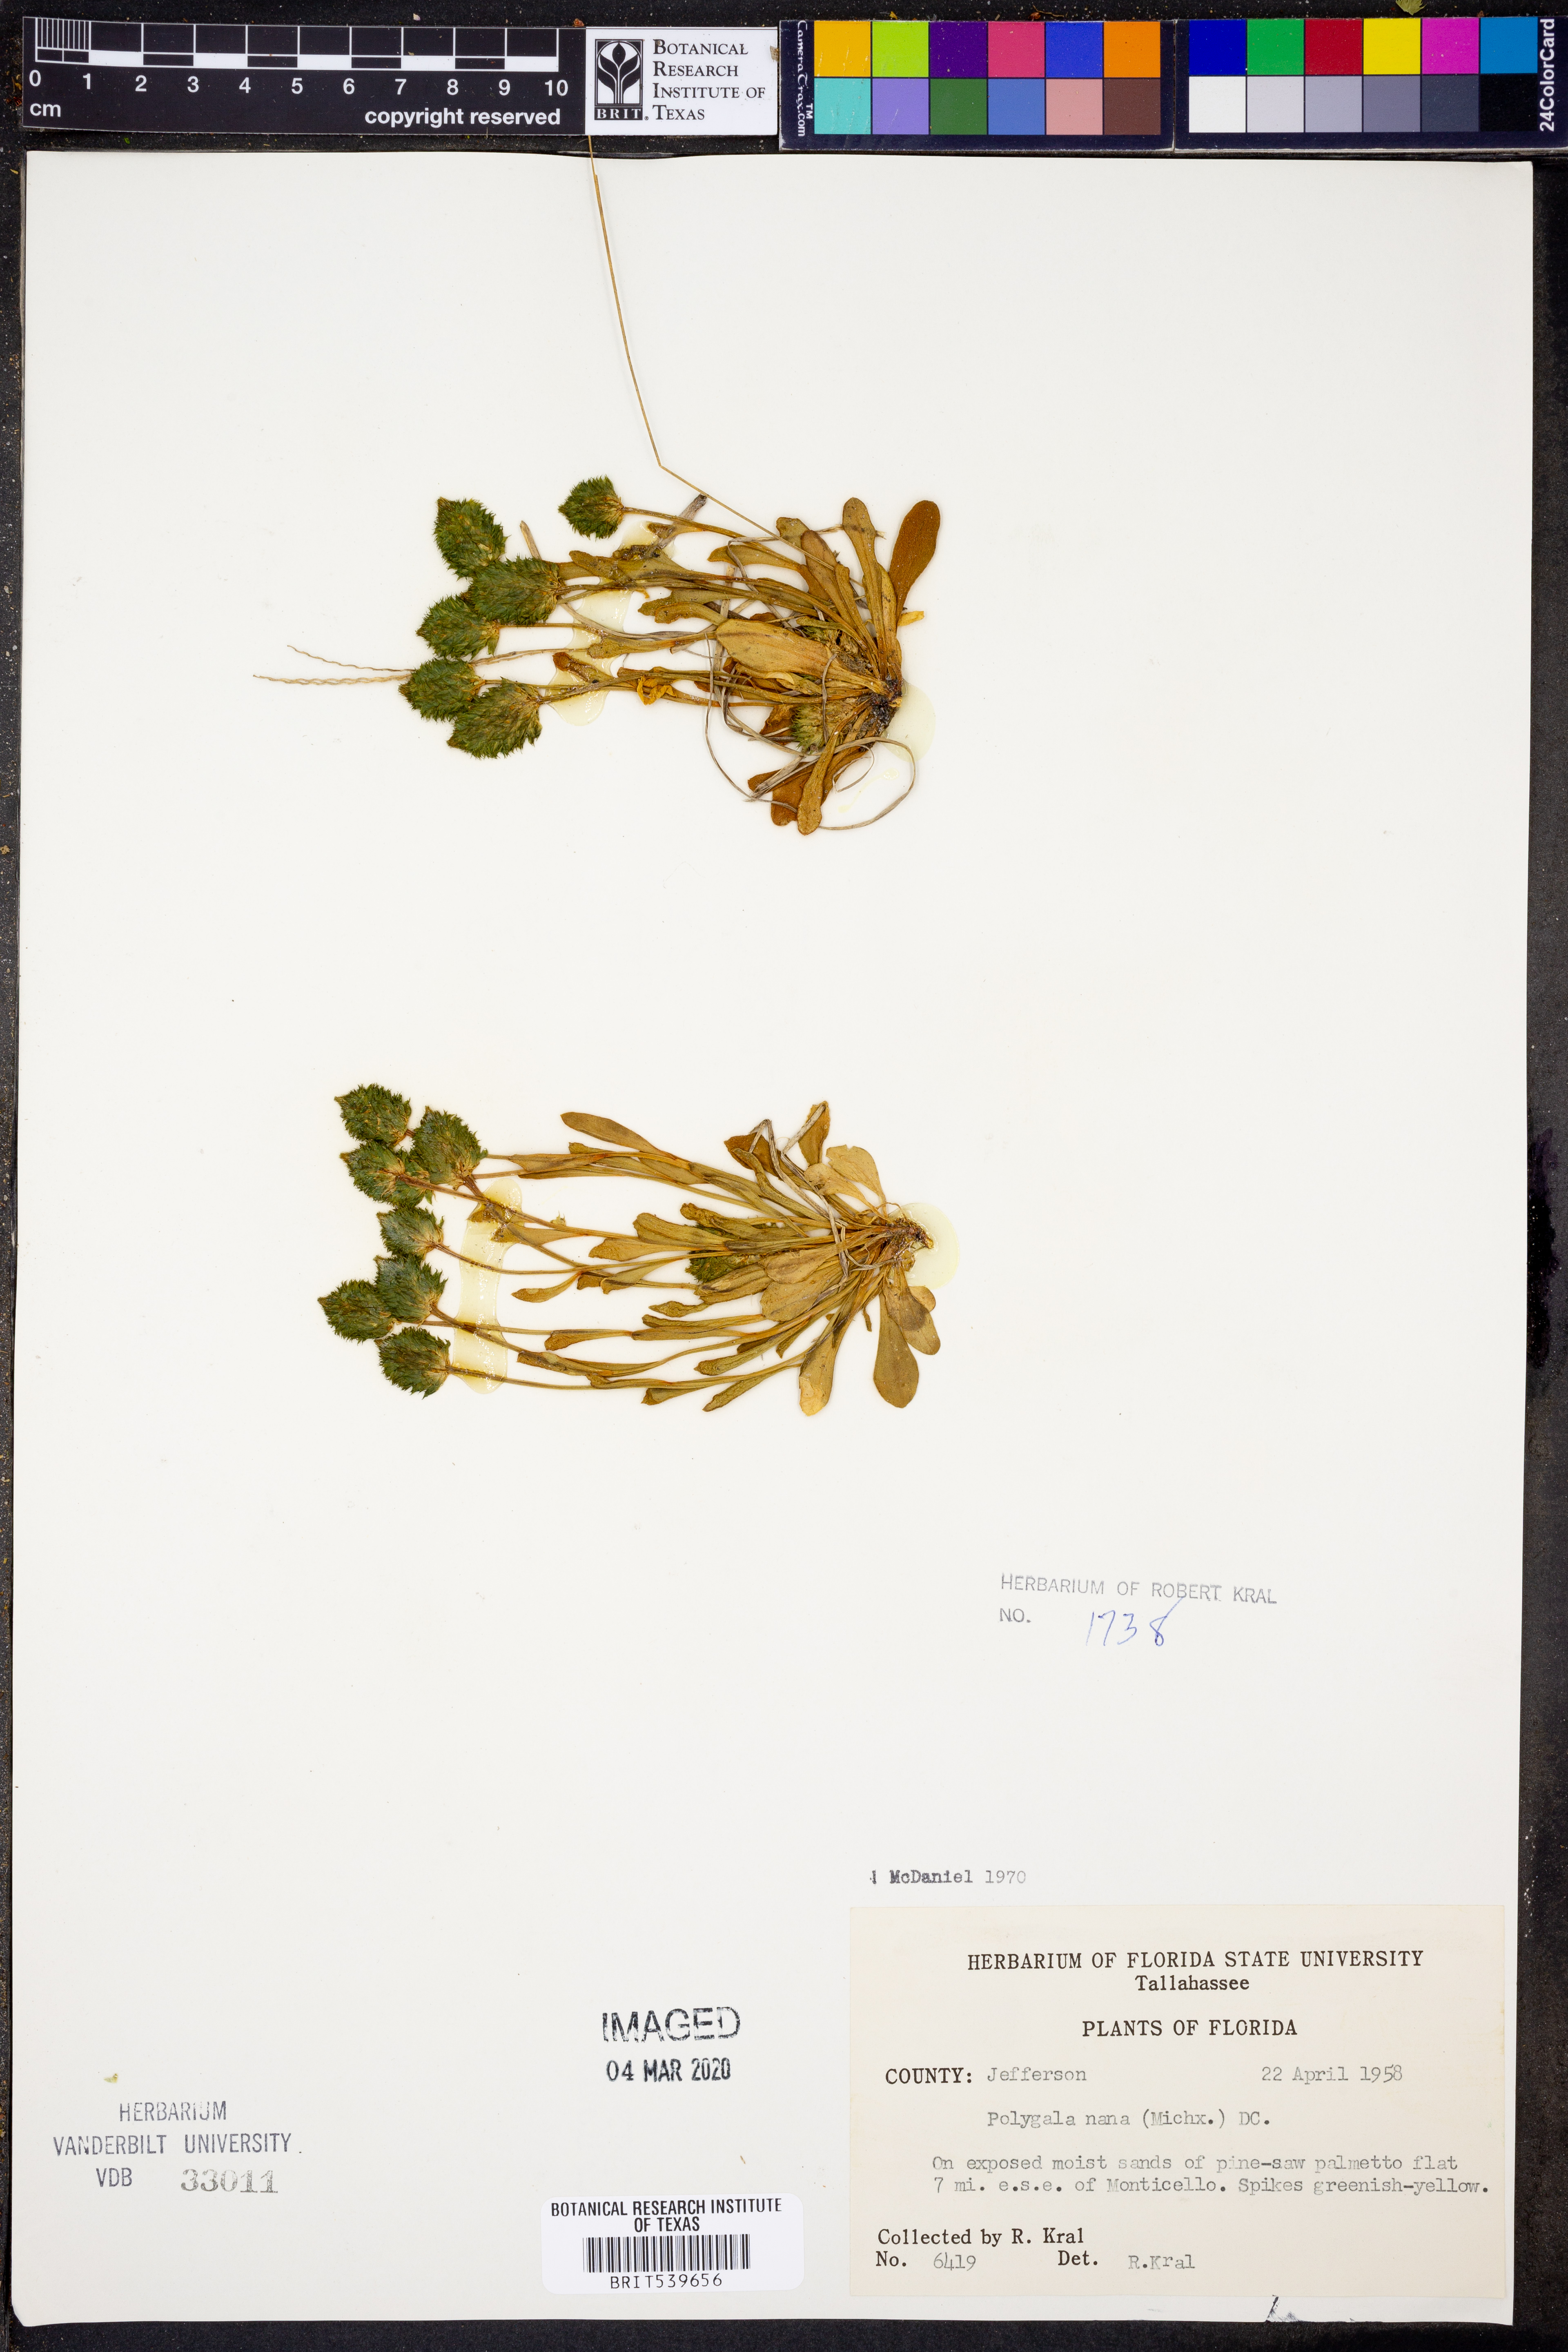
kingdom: Plantae
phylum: Tracheophyta
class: Magnoliopsida
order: Fabales
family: Polygalaceae
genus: Polygala
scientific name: Polygala nana
